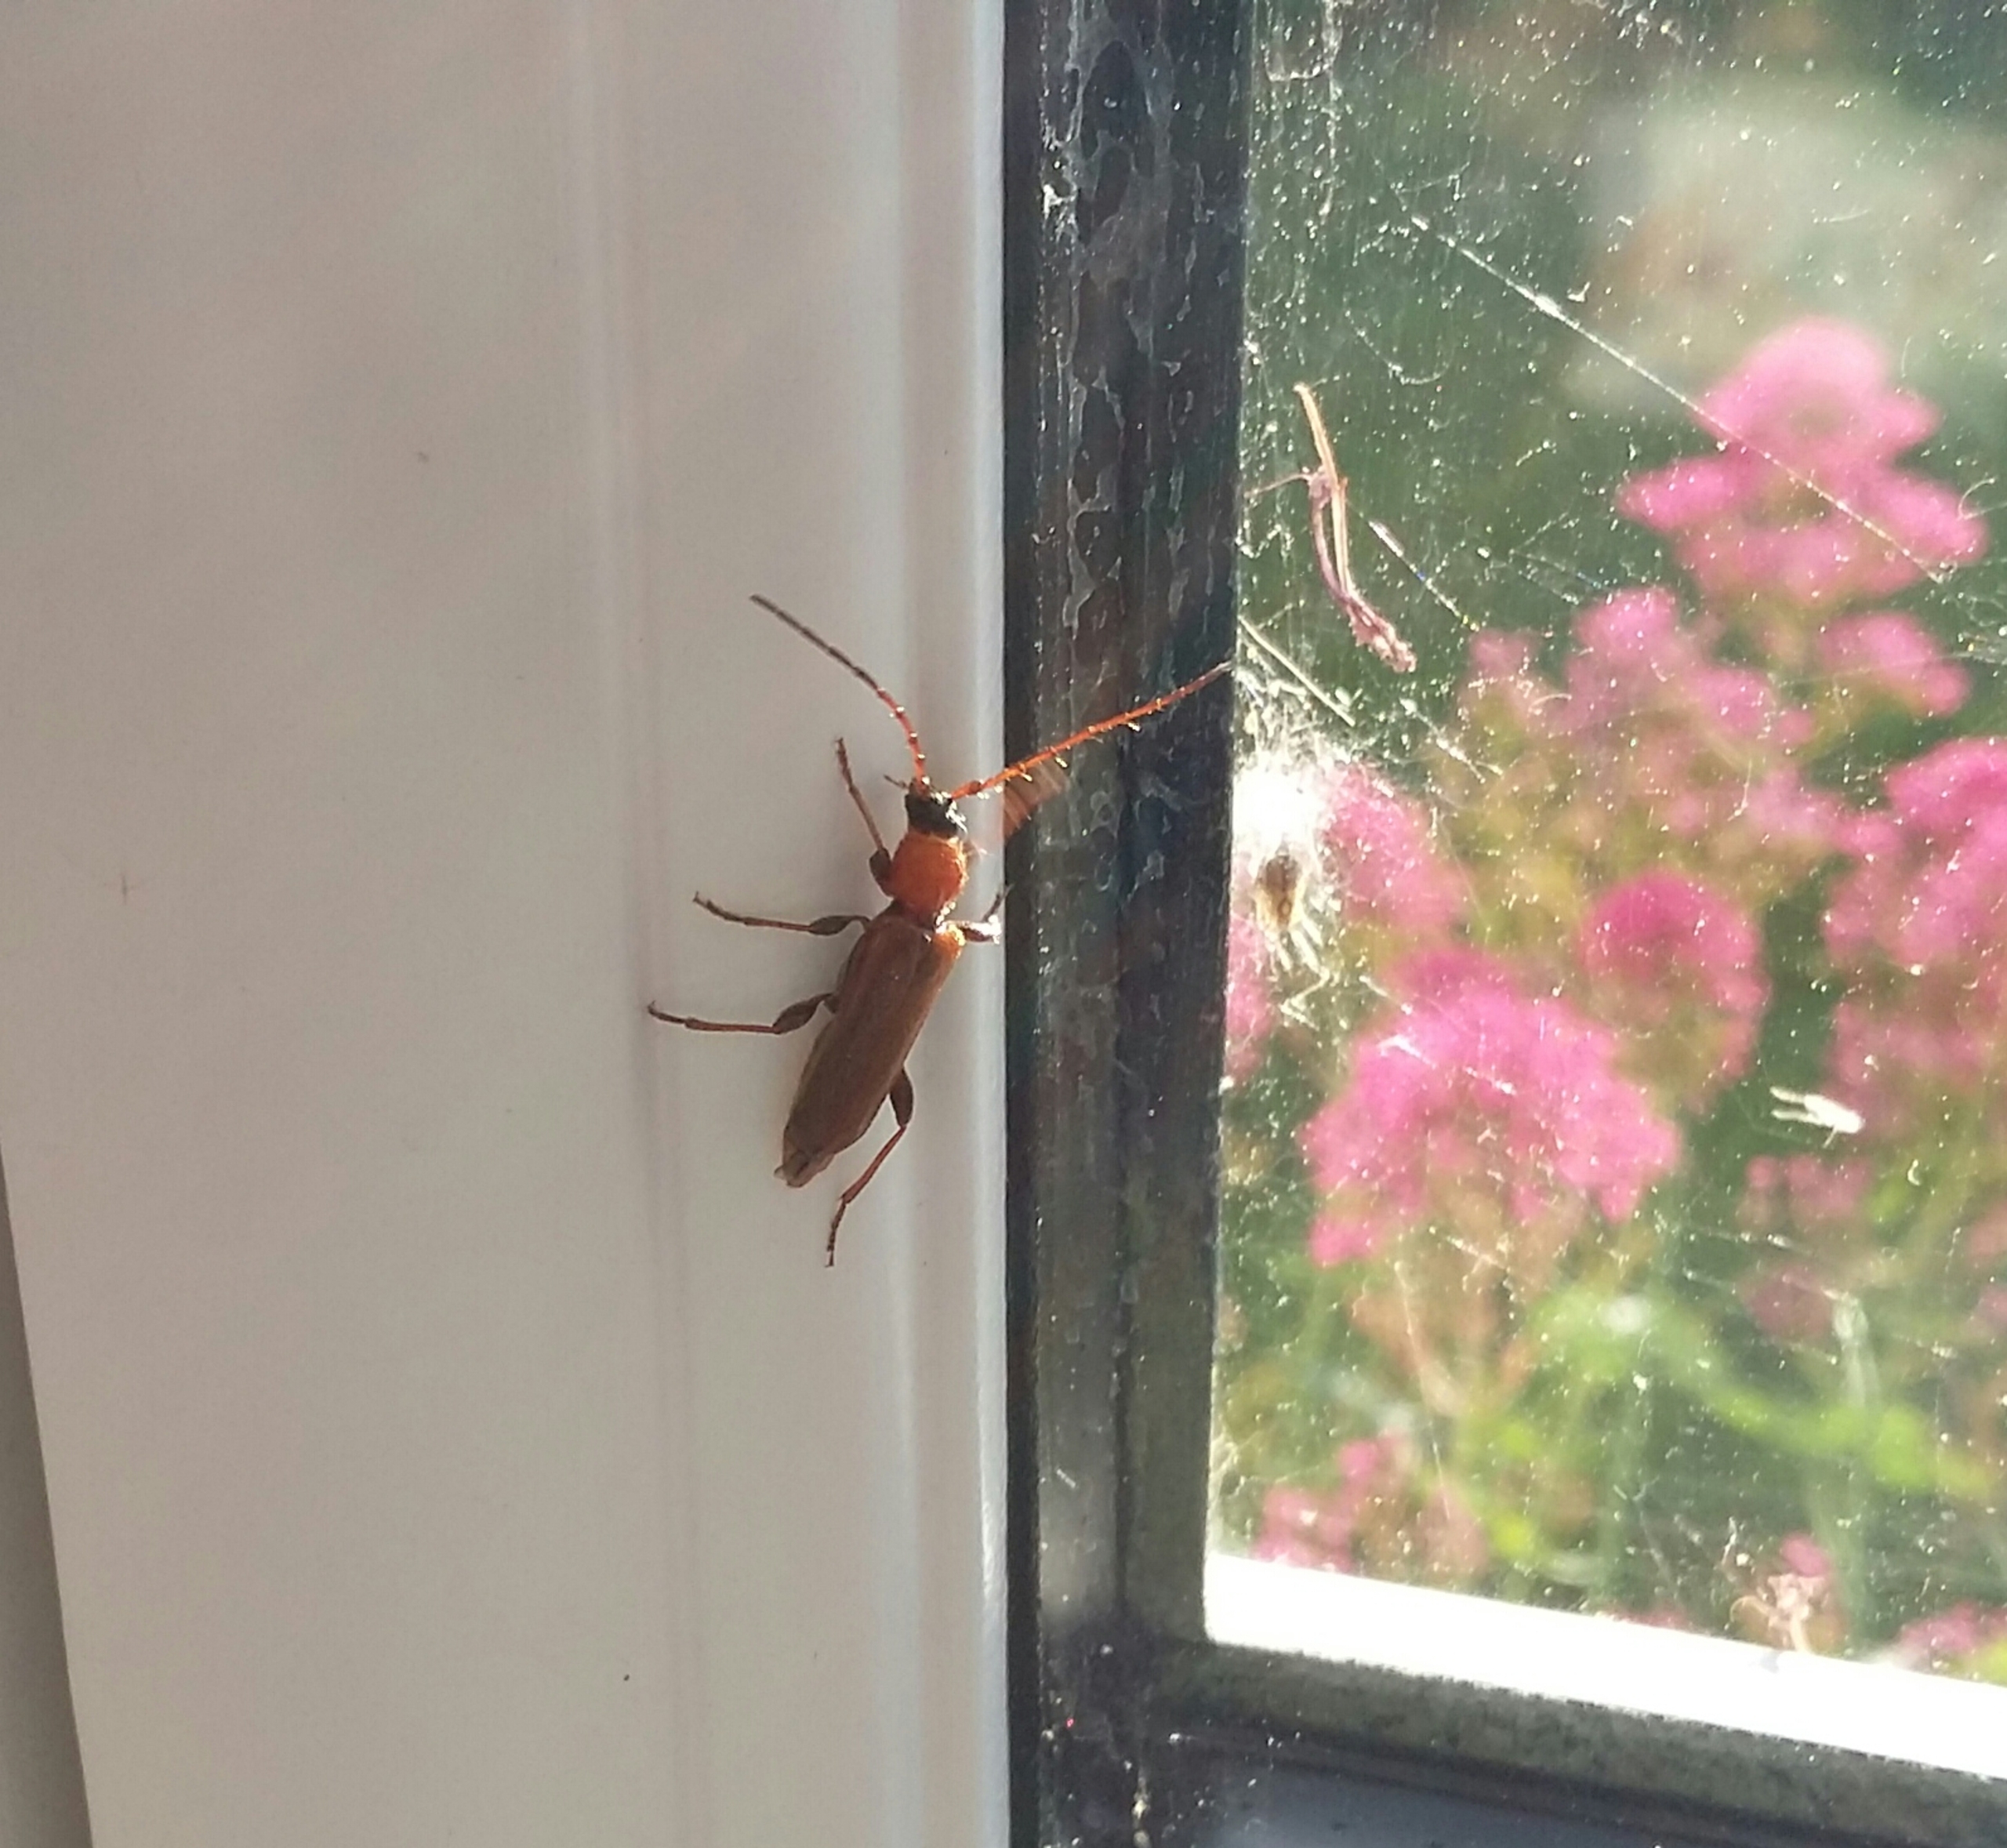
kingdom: Animalia
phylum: Arthropoda
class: Insecta
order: Coleoptera
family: Cerambycidae
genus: Phymatodes
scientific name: Phymatodes testaceus
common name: Bøgebuk
